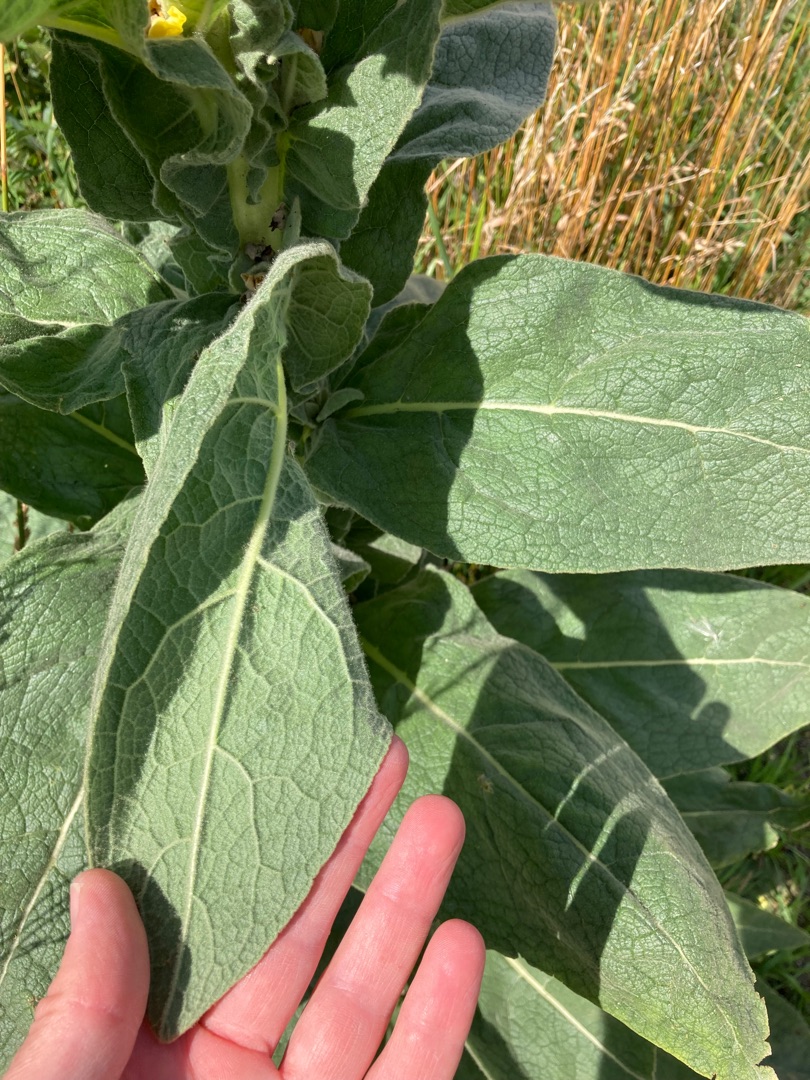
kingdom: Plantae
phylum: Tracheophyta
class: Magnoliopsida
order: Lamiales
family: Scrophulariaceae
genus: Verbascum
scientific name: Verbascum speciosum
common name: Kandelaber-kongelys
